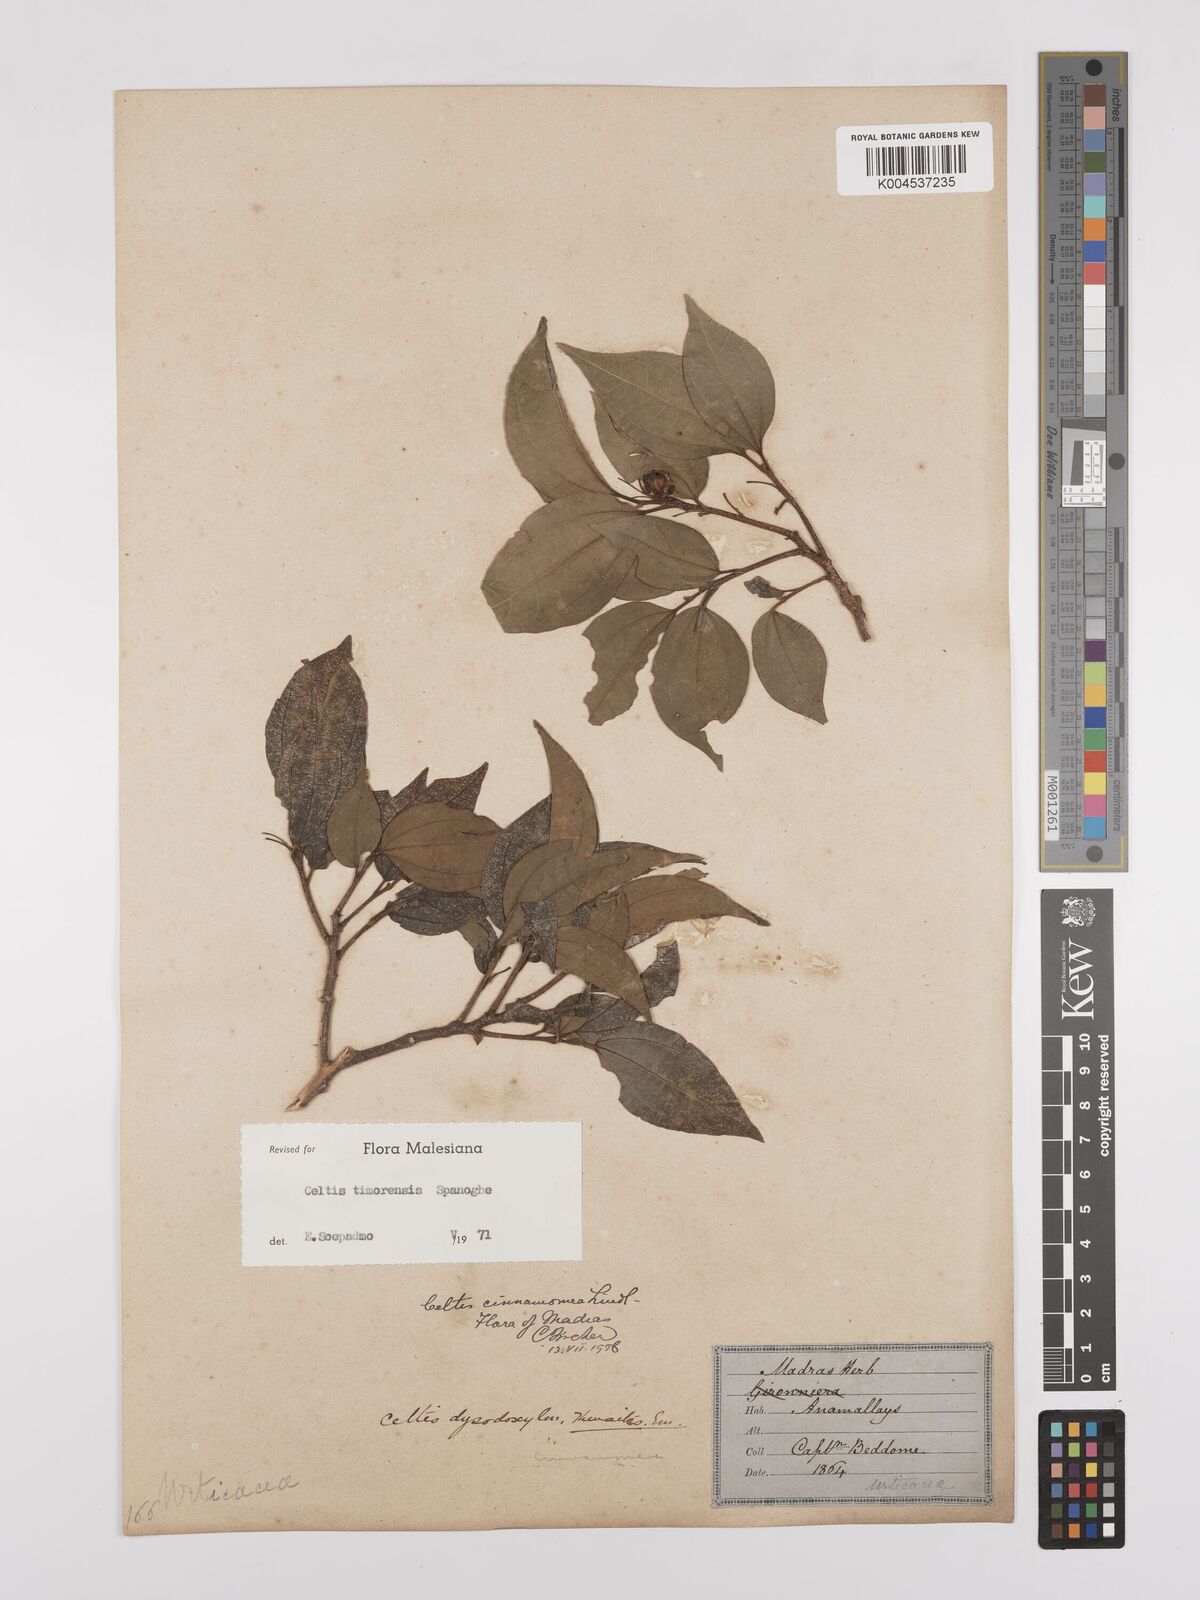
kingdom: Plantae
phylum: Tracheophyta
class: Magnoliopsida
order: Rosales
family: Cannabaceae
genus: Celtis
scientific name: Celtis timorensis
